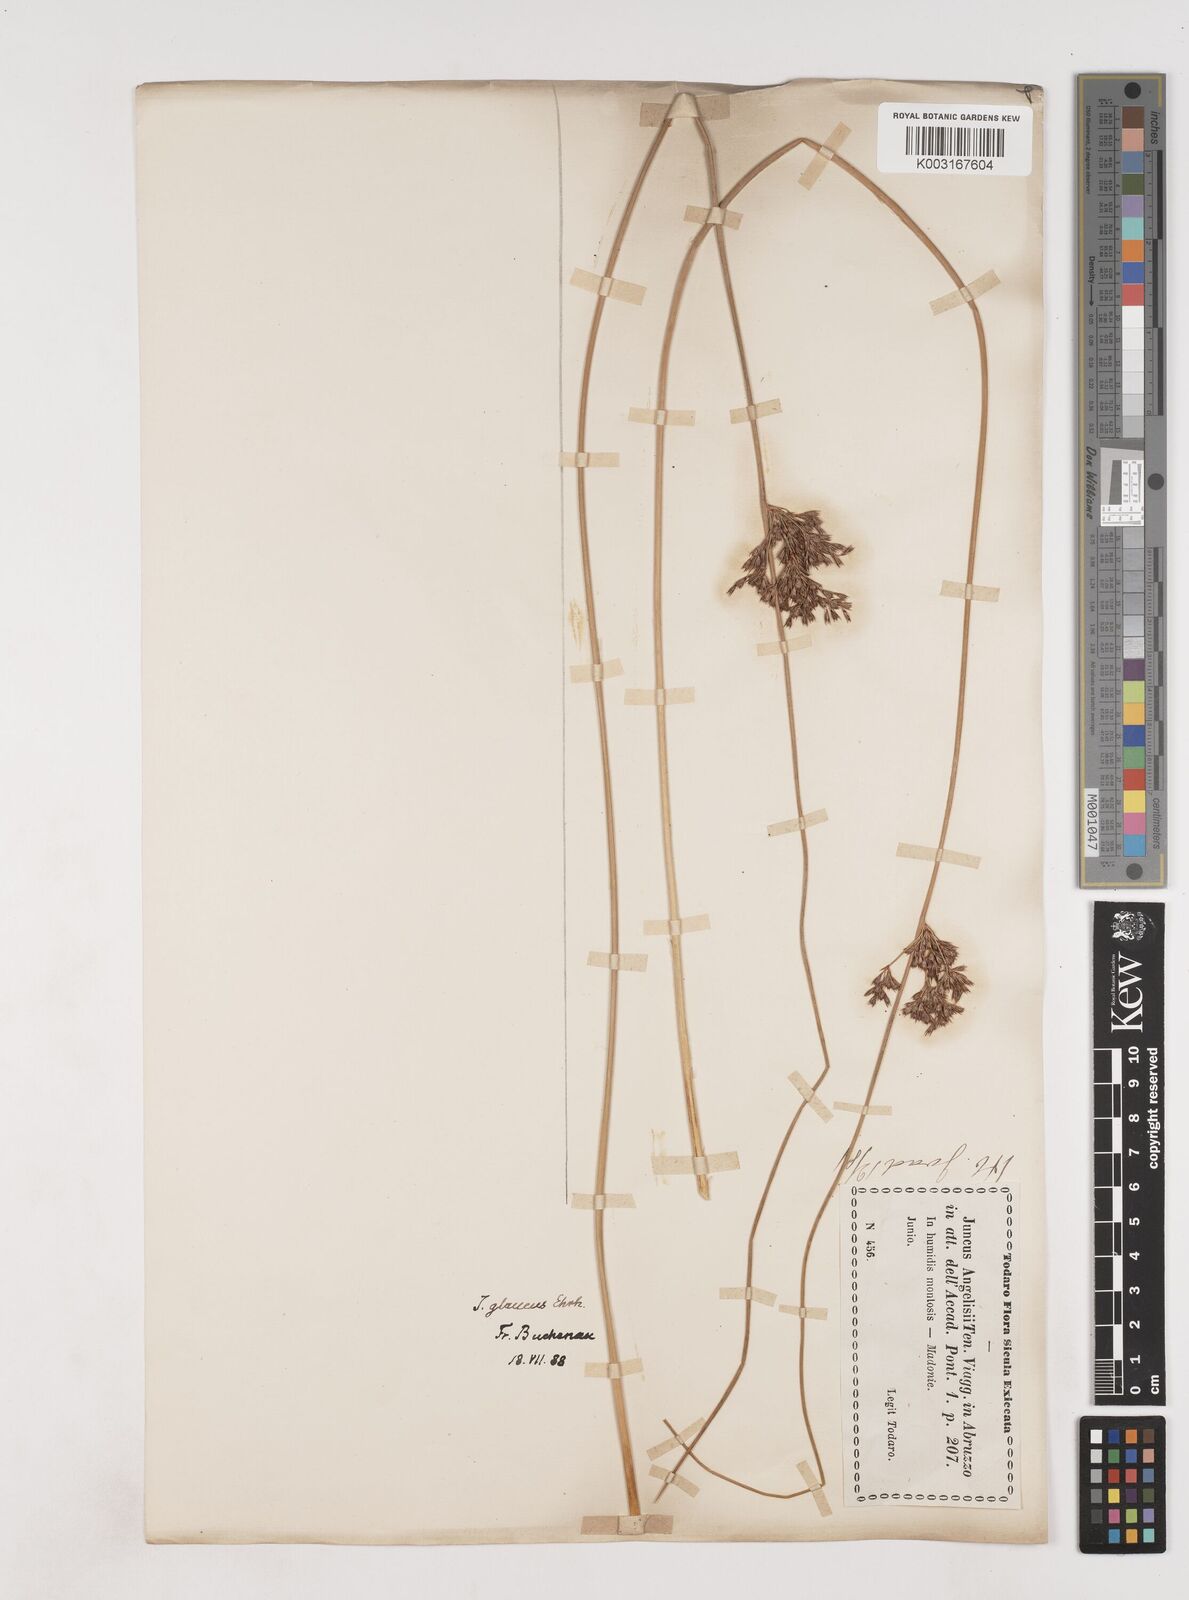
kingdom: Plantae
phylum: Tracheophyta
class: Liliopsida
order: Poales
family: Juncaceae
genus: Juncus
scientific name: Juncus inflexus
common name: Hard rush
